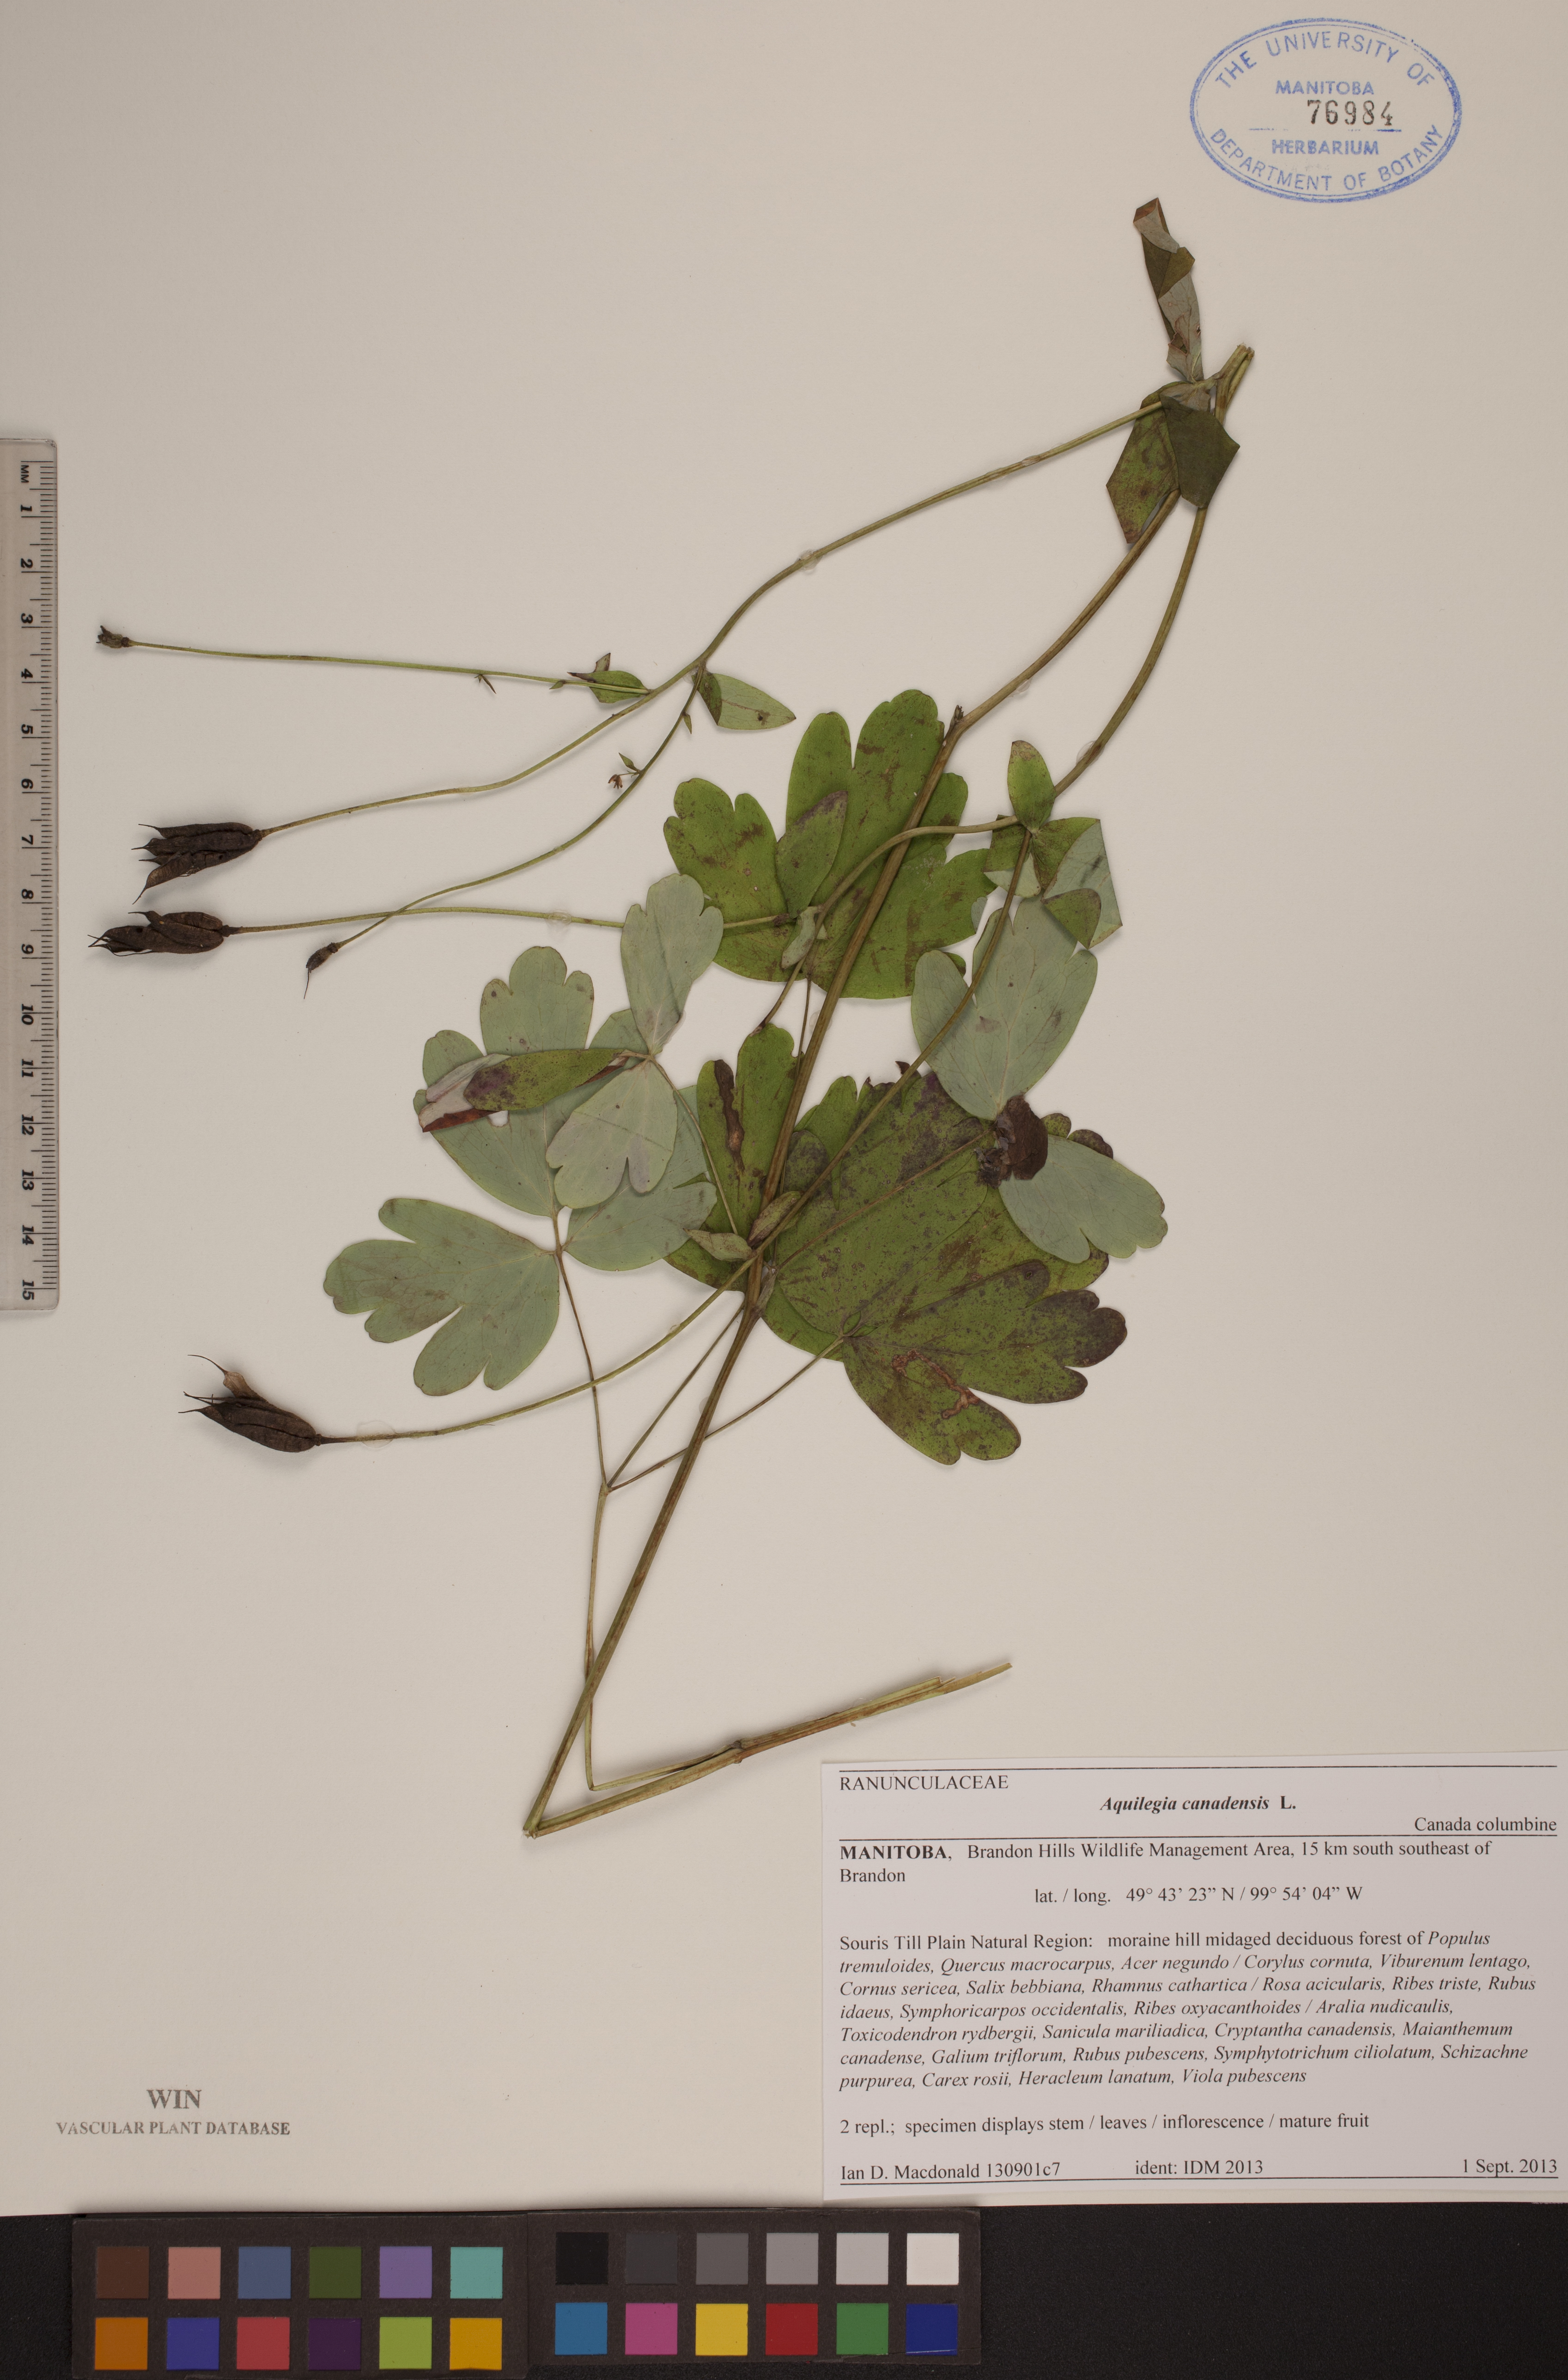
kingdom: Plantae
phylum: Tracheophyta
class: Magnoliopsida
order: Ranunculales
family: Ranunculaceae
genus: Aquilegia
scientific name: Aquilegia canadensis
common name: American columbine
